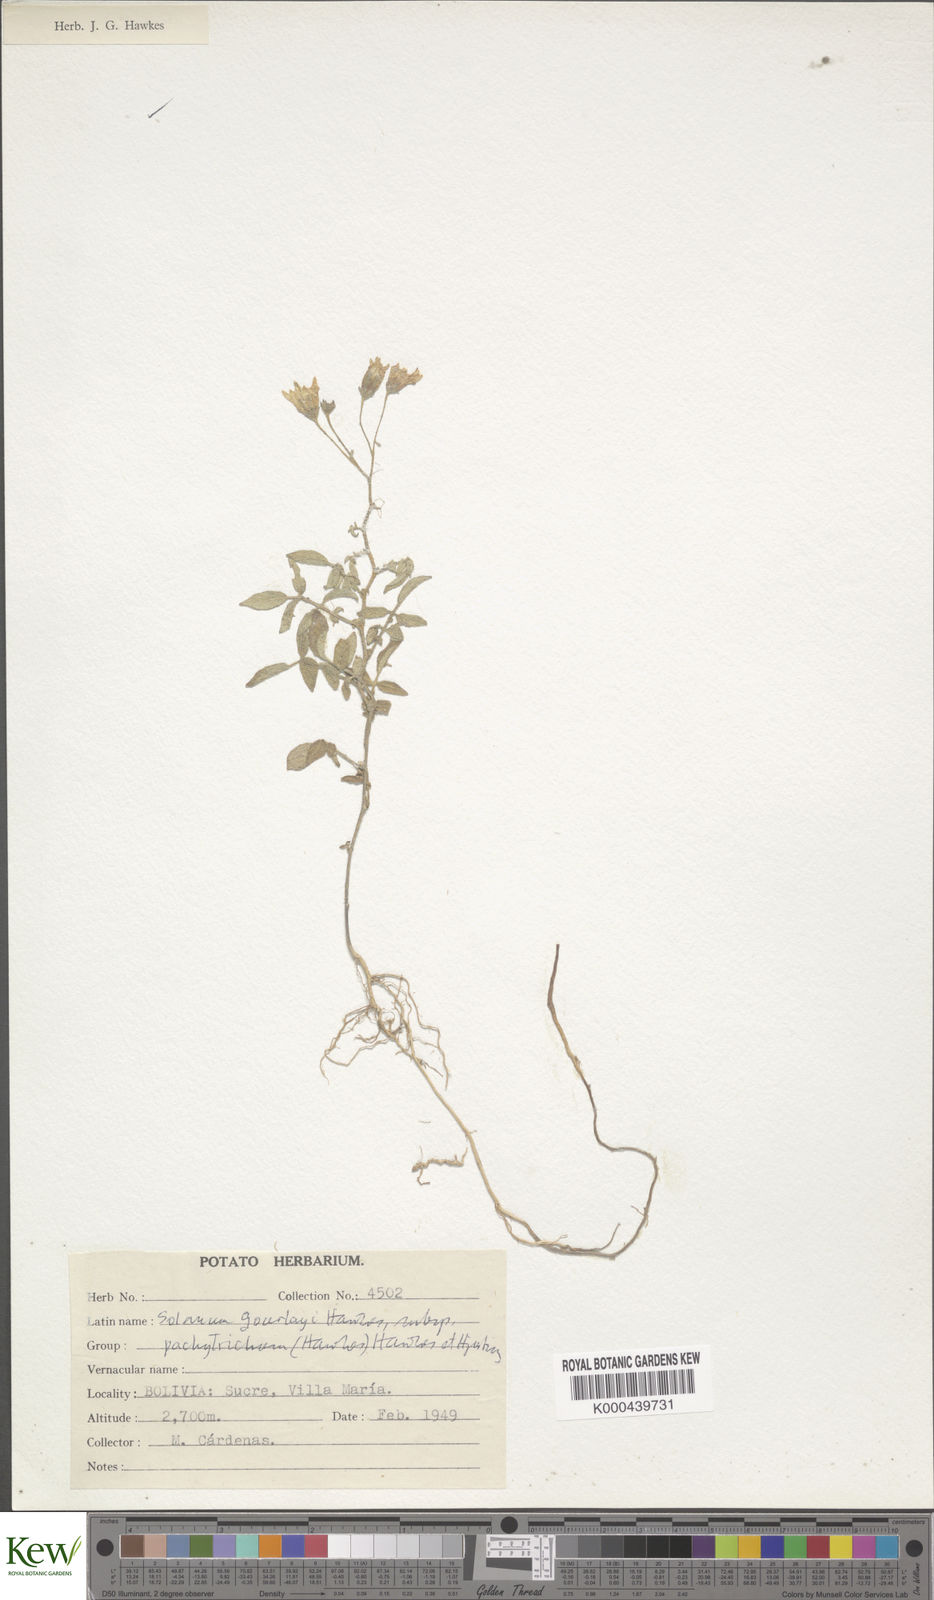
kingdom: Plantae
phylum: Tracheophyta
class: Magnoliopsida
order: Solanales
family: Solanaceae
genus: Solanum
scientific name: Solanum brevicaule
